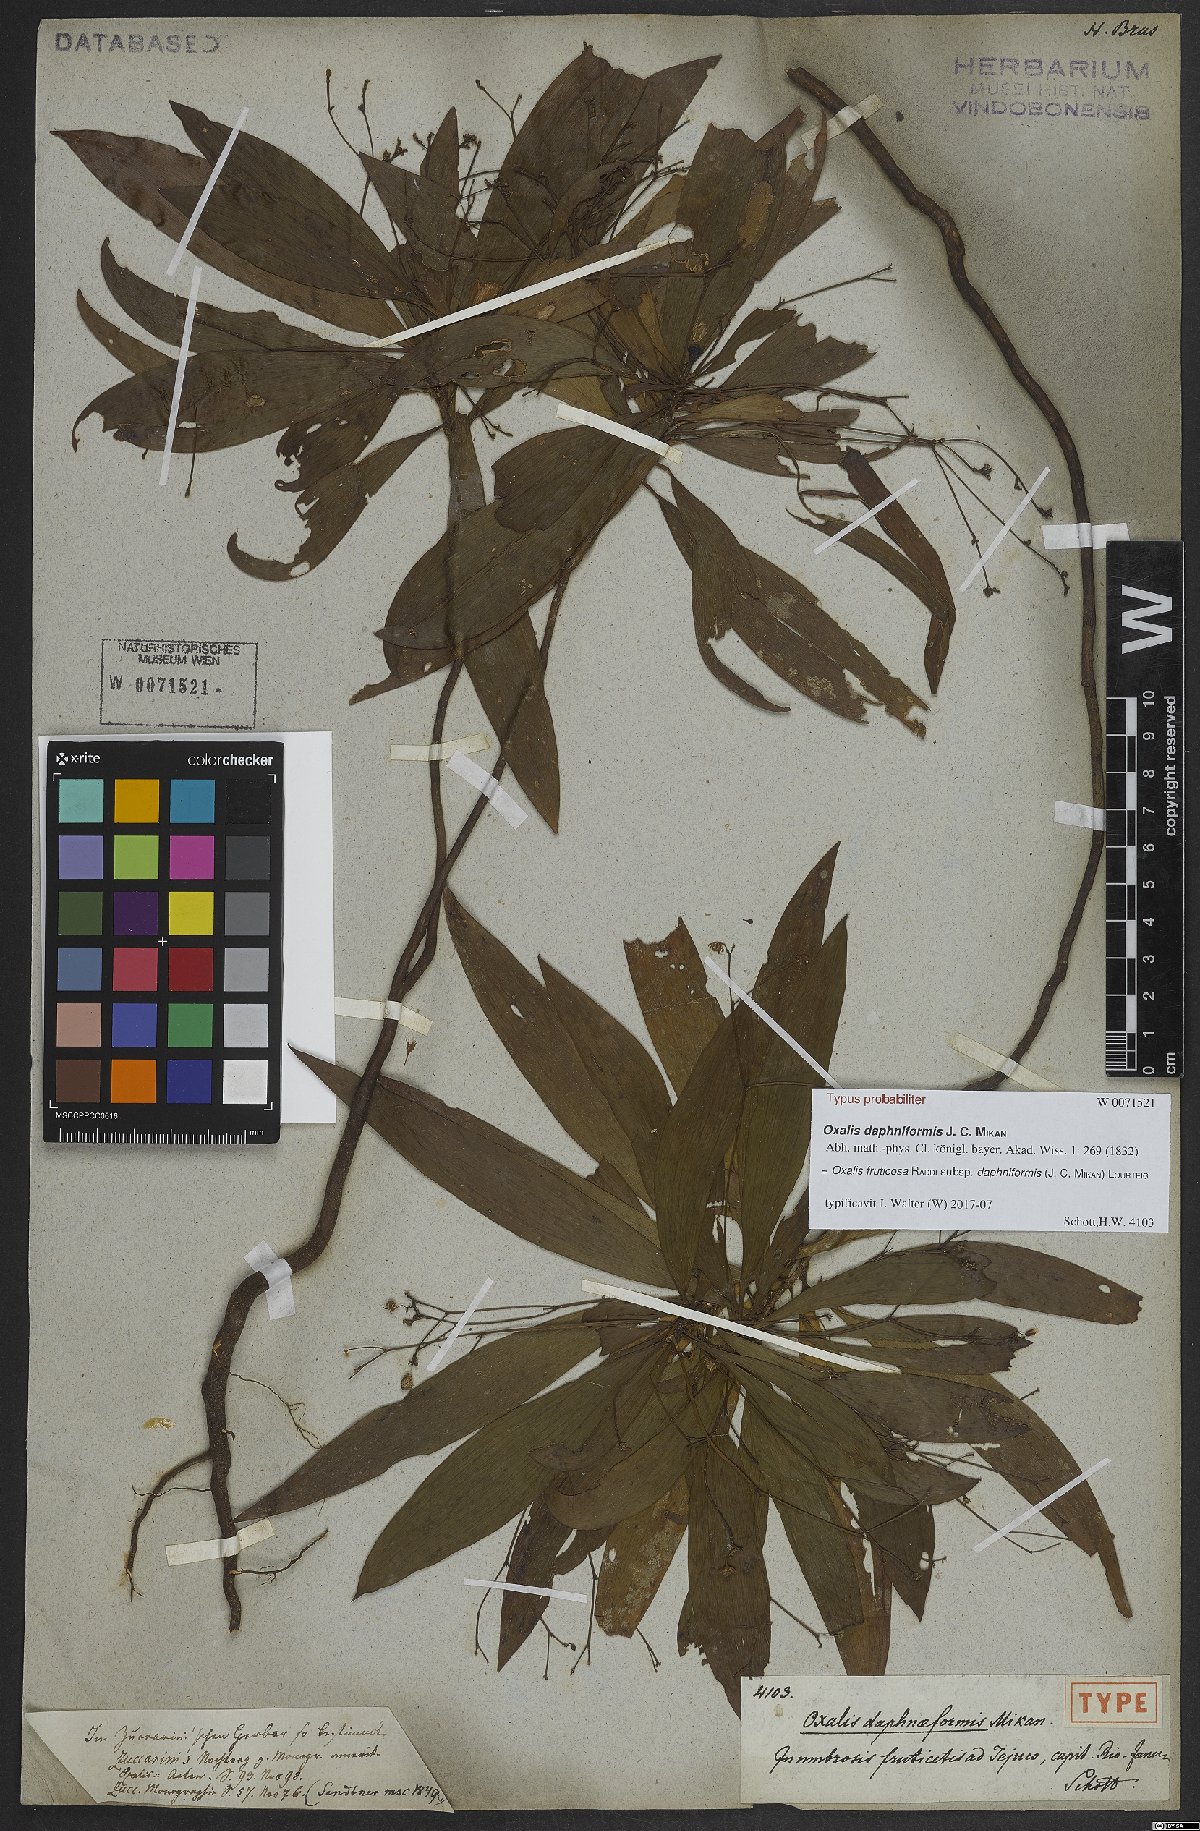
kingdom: Plantae
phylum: Tracheophyta
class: Magnoliopsida
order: Oxalidales
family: Oxalidaceae
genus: Oxalis
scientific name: Oxalis fruticosa
